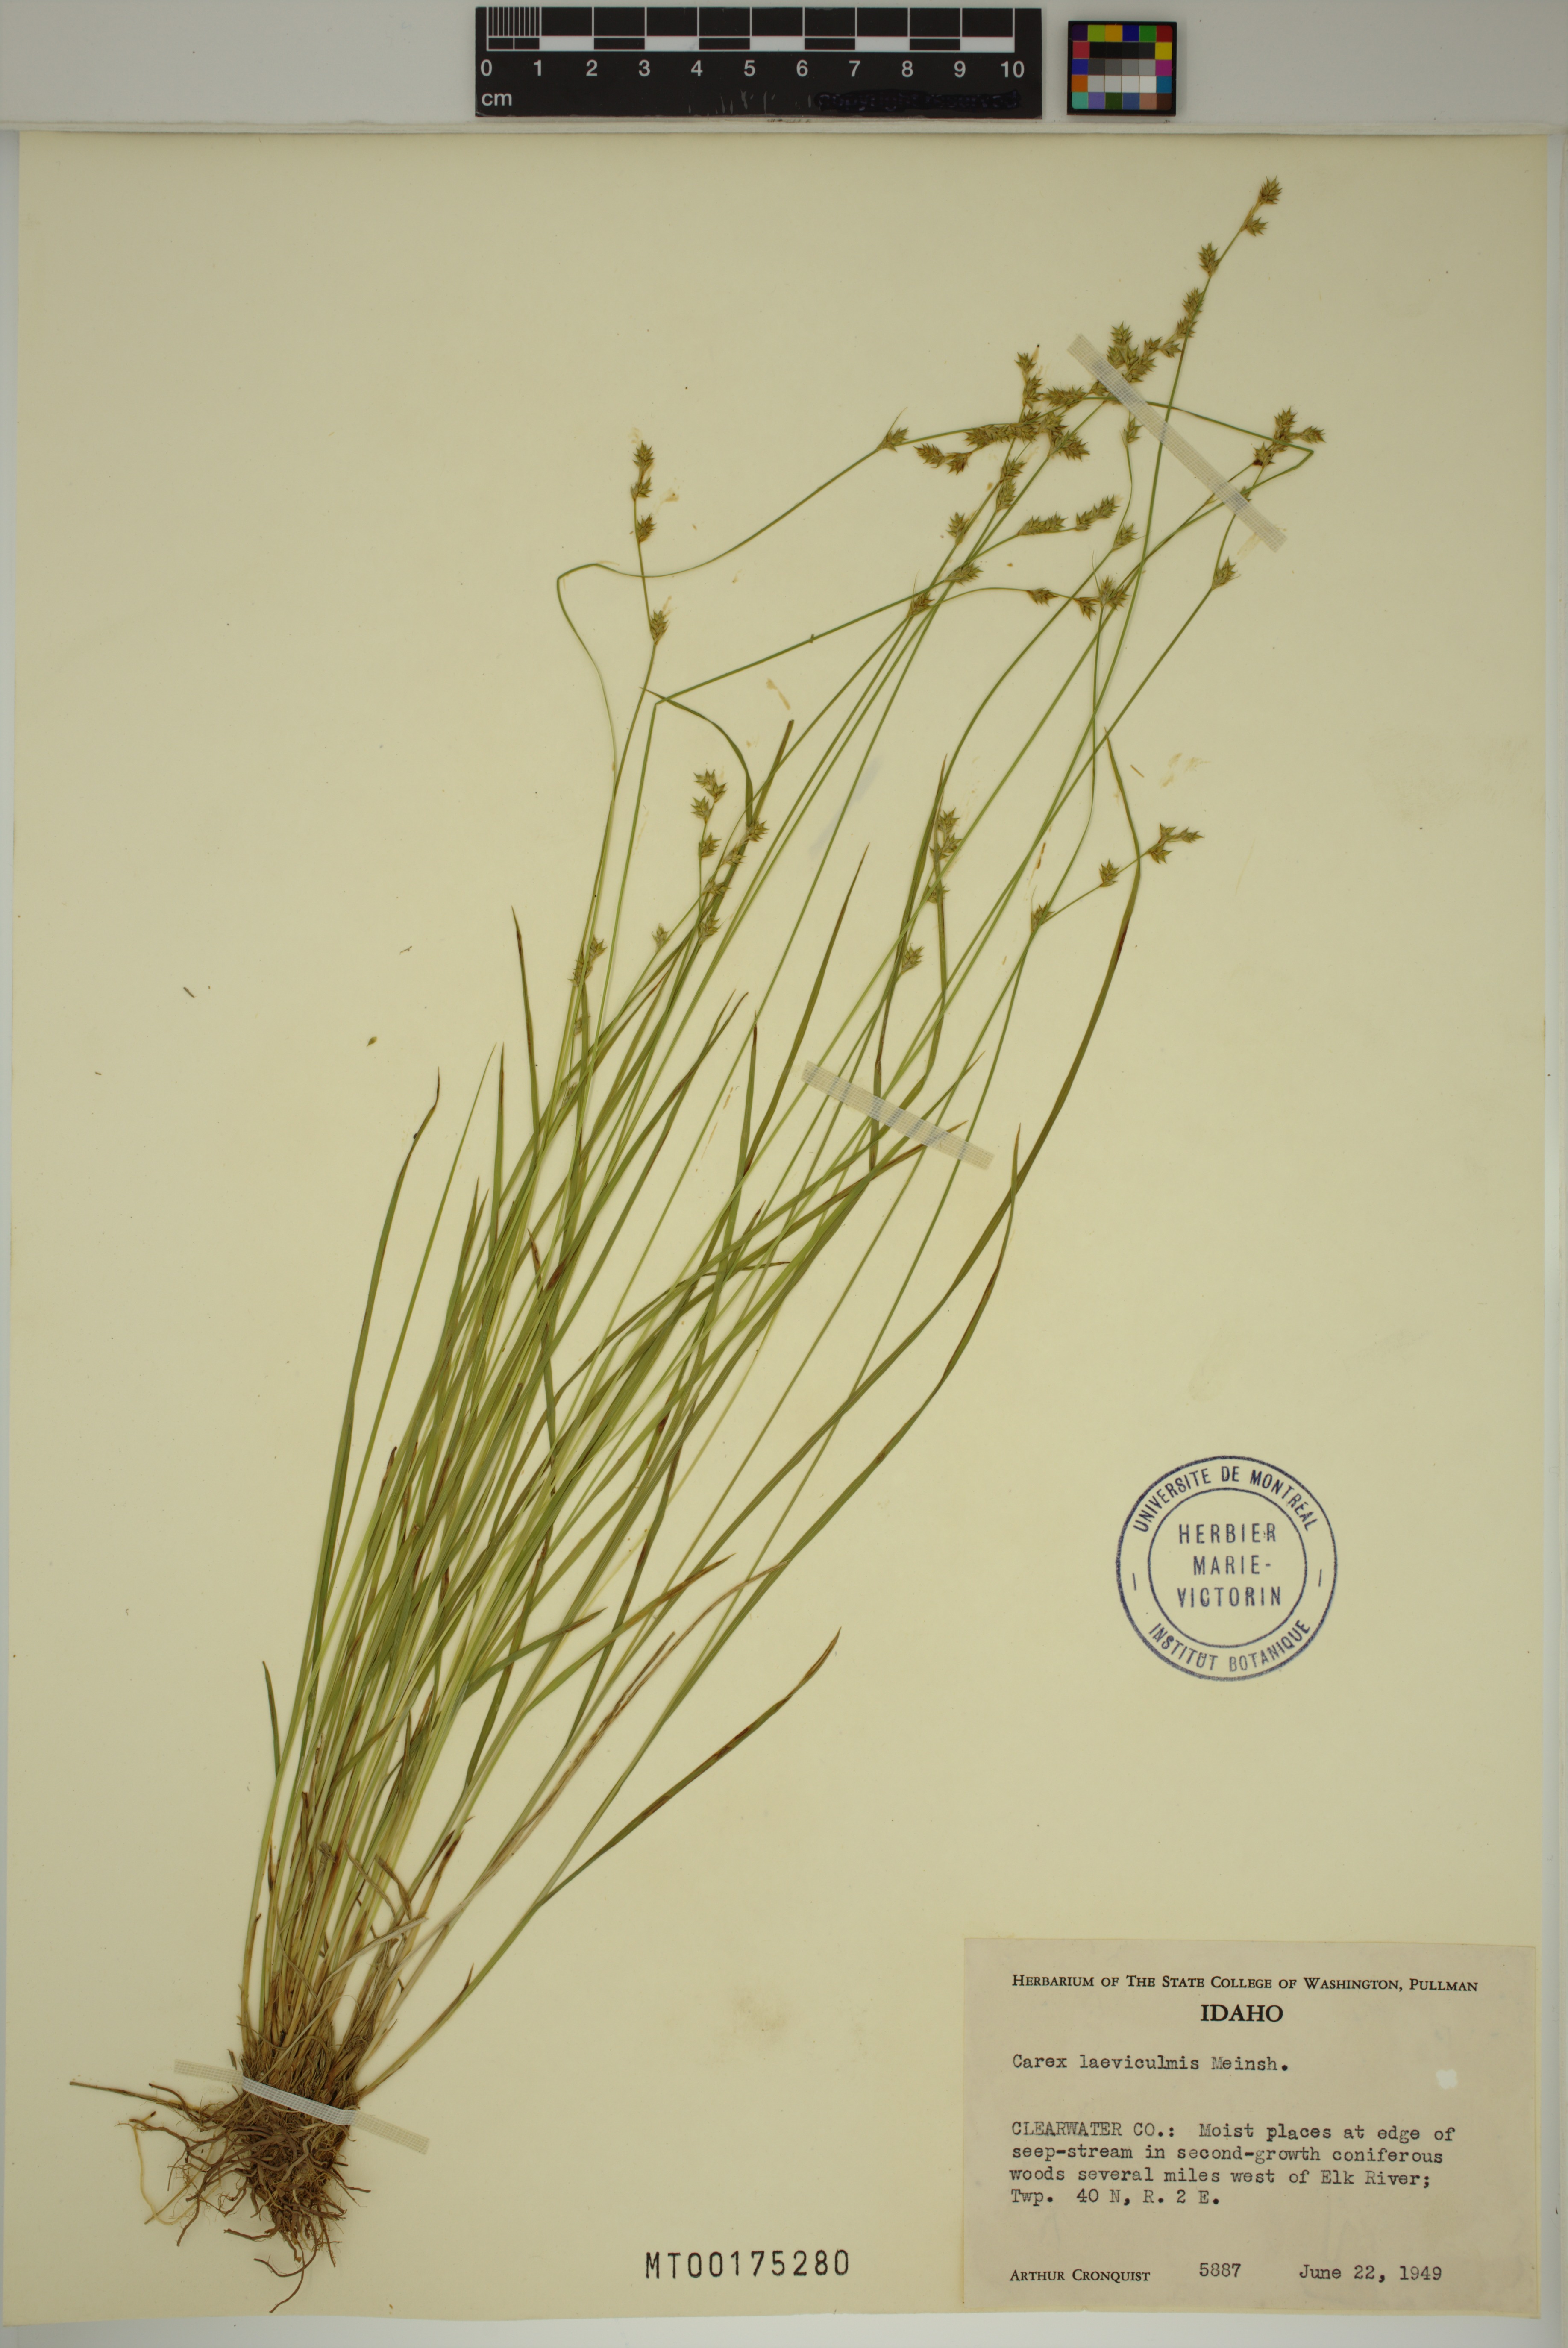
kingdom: Plantae
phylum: Tracheophyta
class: Liliopsida
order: Poales
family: Cyperaceae
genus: Carex
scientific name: Carex laeviculmis
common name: Smooth sedge
